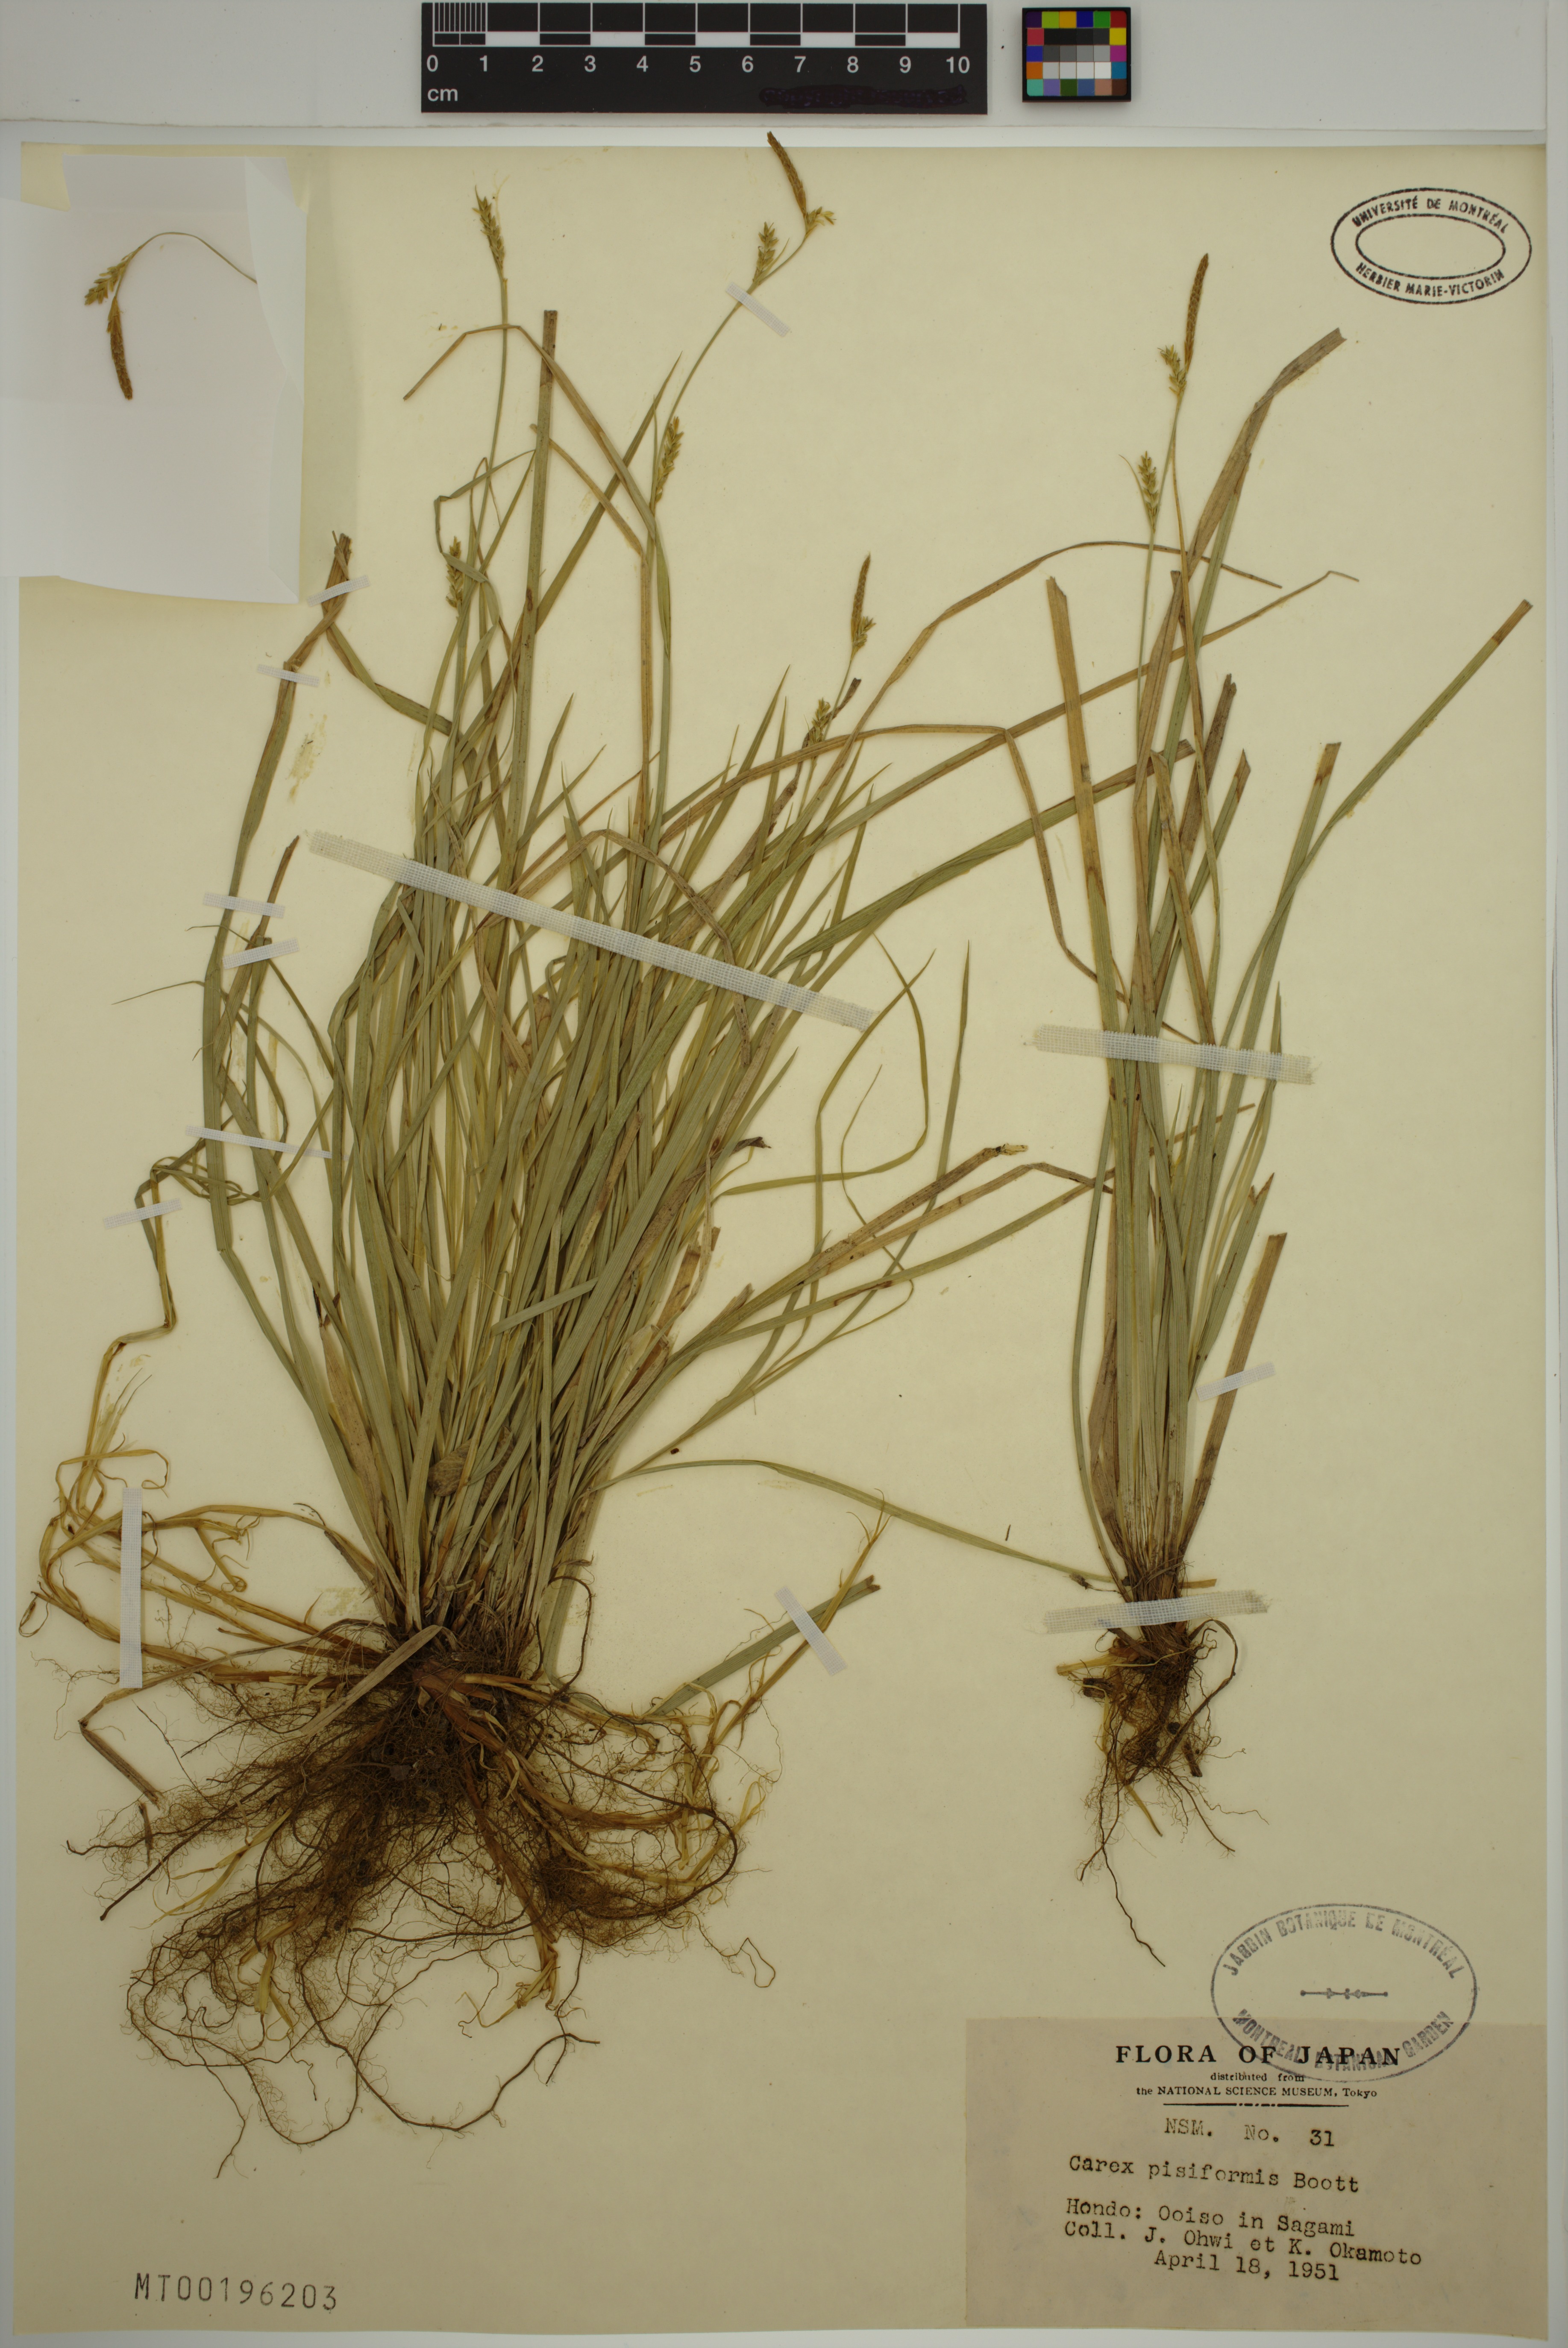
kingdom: Plantae
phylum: Tracheophyta
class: Liliopsida
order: Poales
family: Cyperaceae
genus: Carex
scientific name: Carex pisiformis
